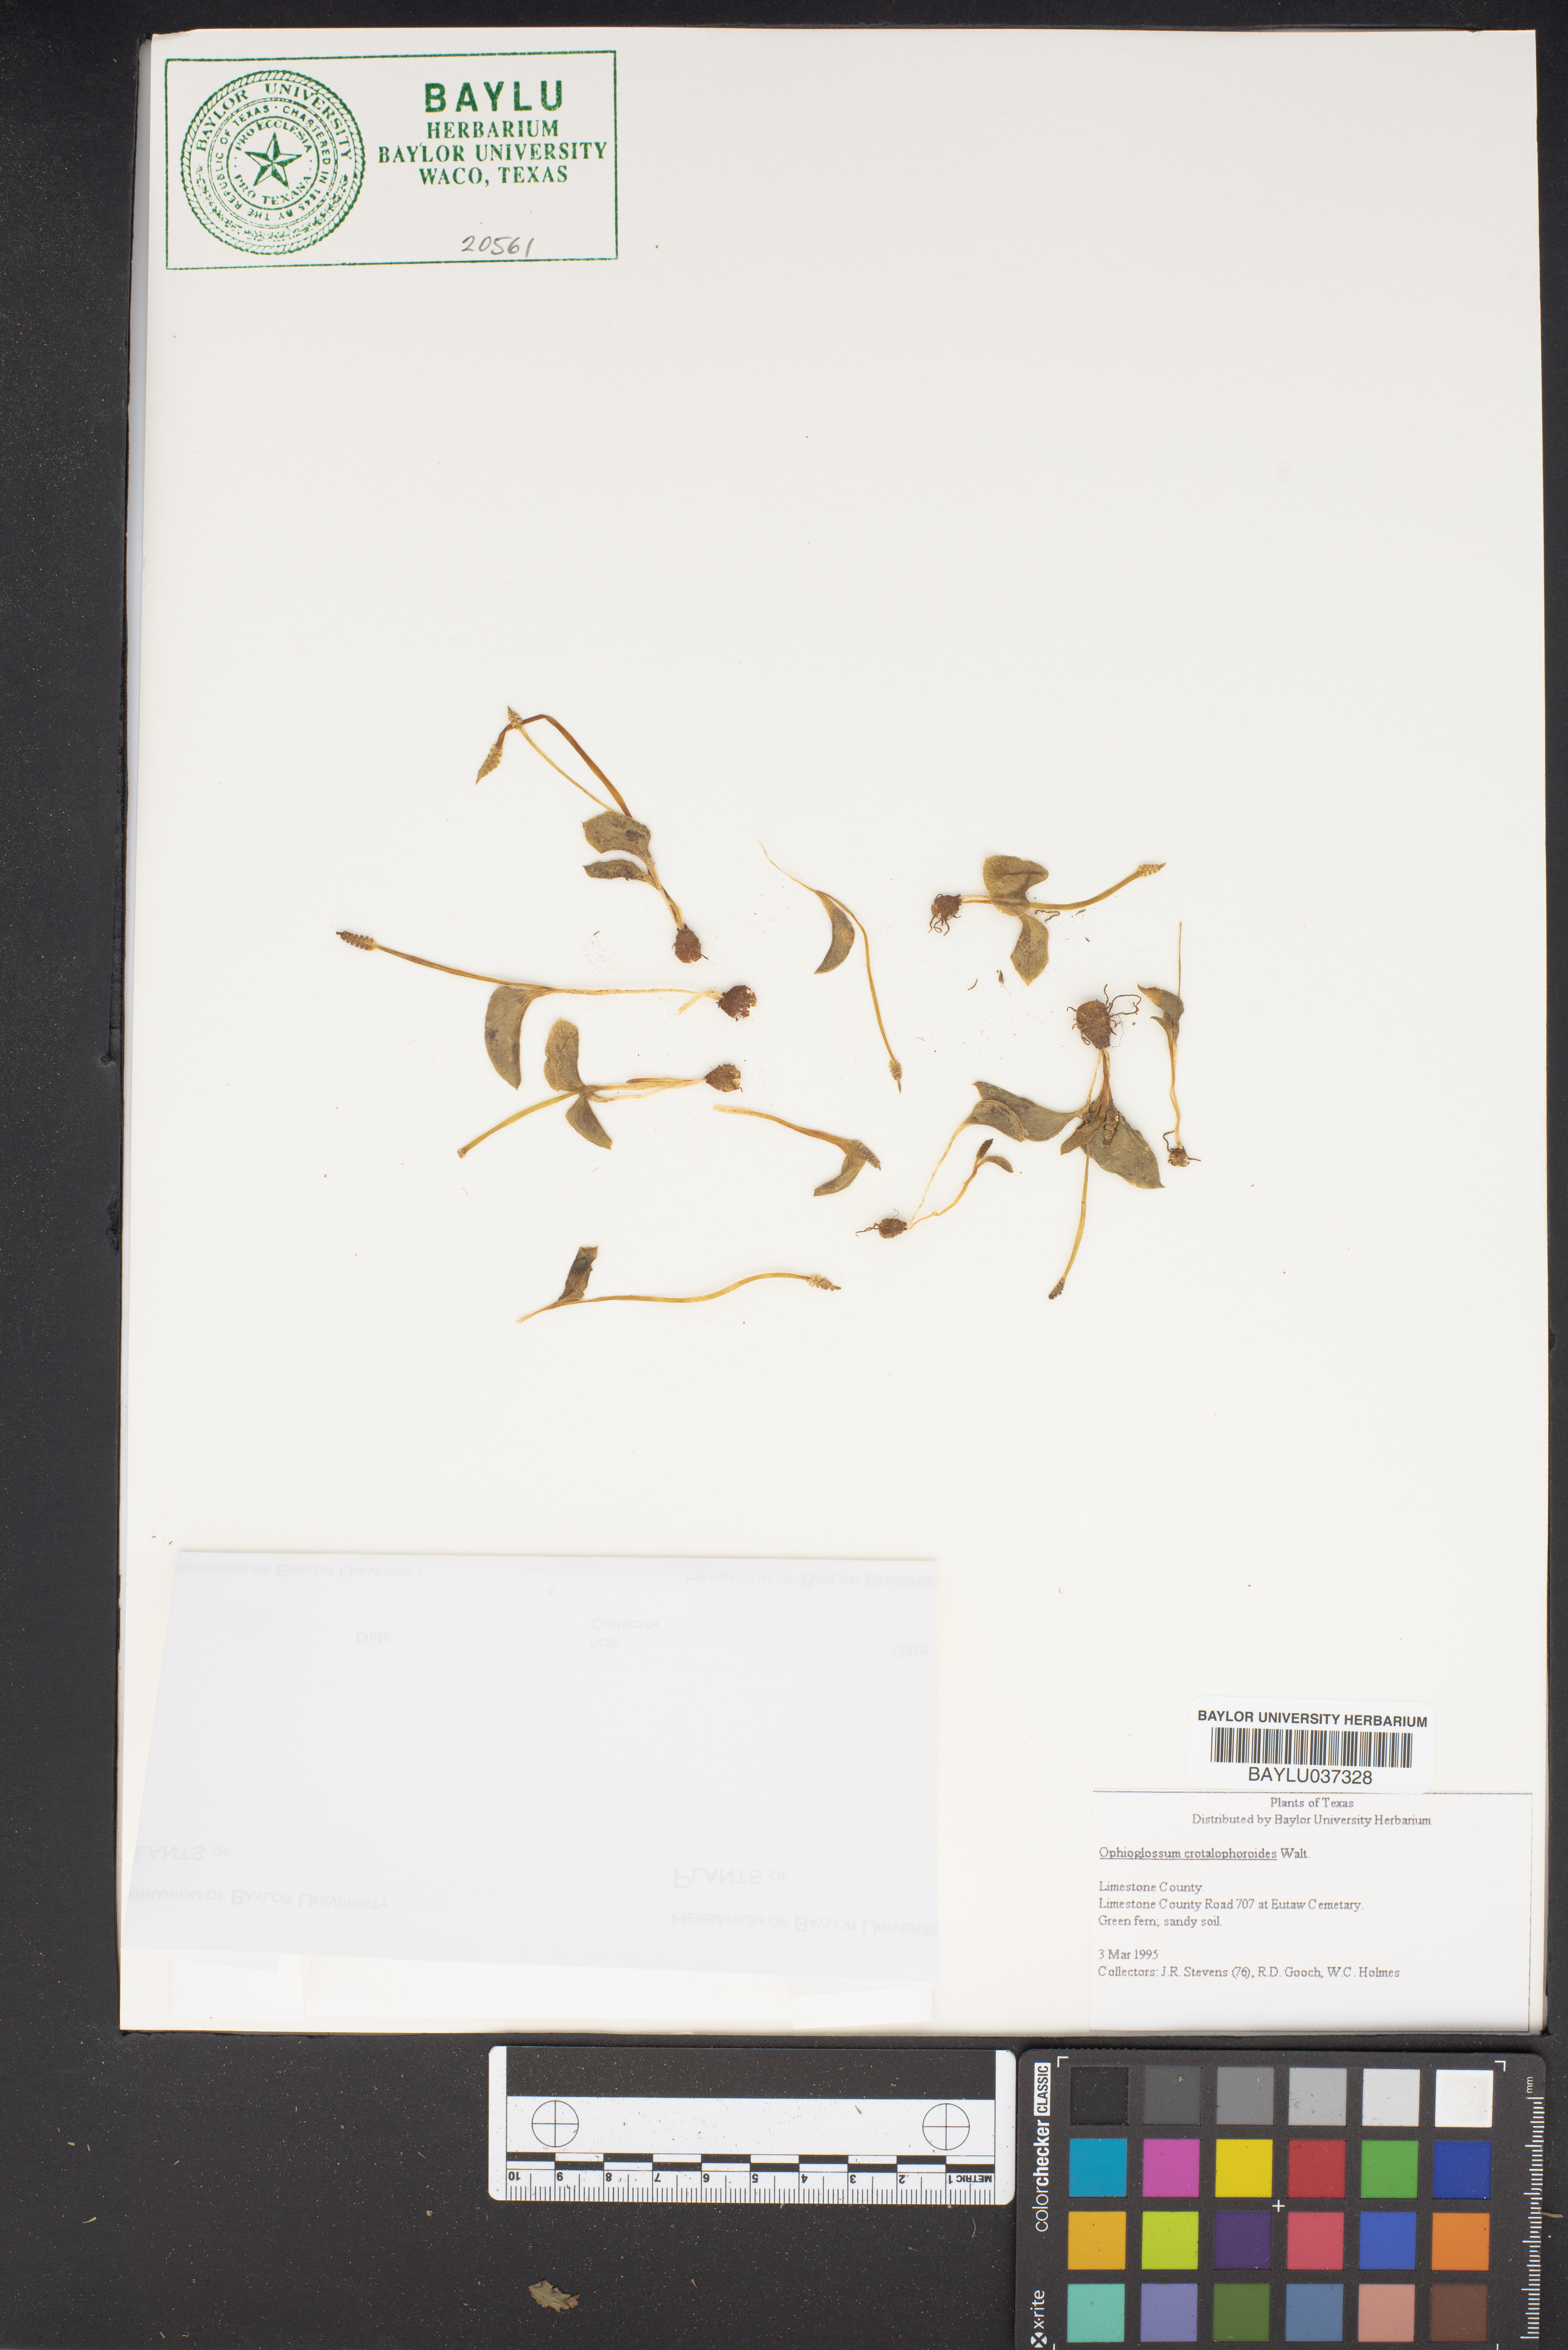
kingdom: Plantae
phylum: Tracheophyta
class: Polypodiopsida
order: Ophioglossales
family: Ophioglossaceae
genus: Ophioglossum
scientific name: Ophioglossum crotalophoroides
